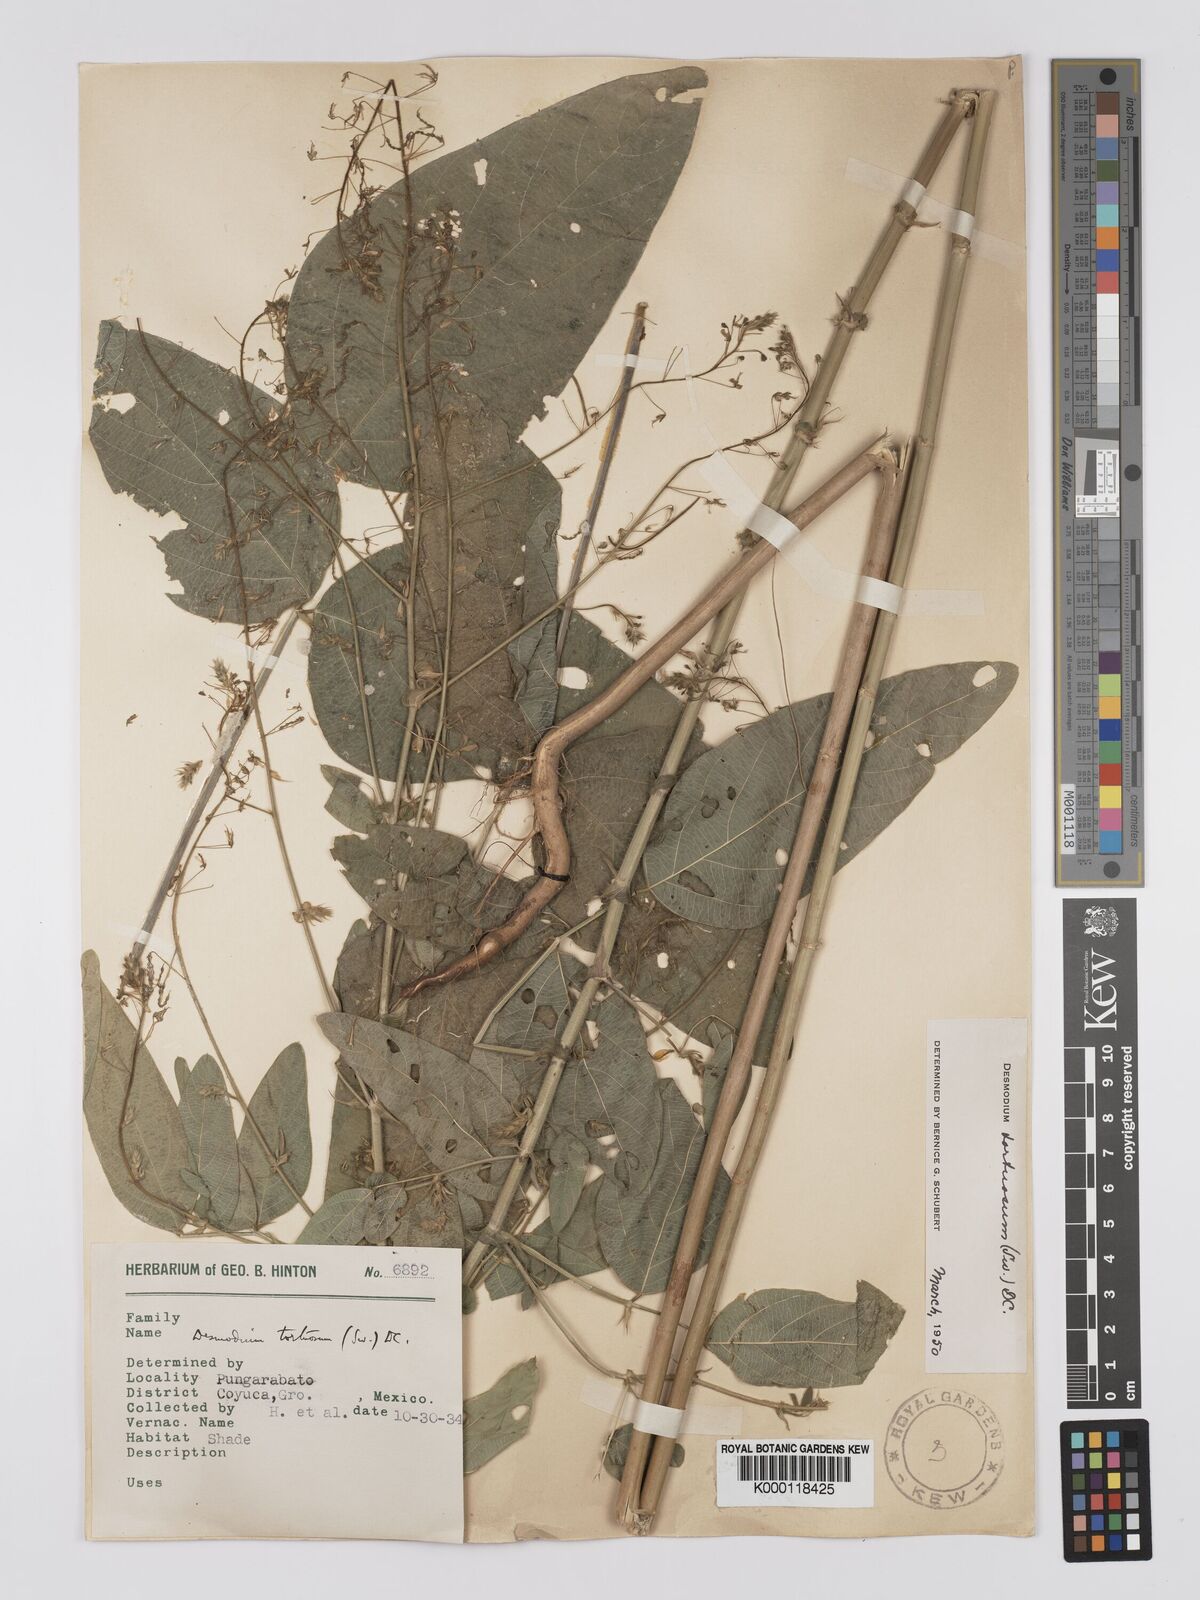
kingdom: Plantae
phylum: Tracheophyta
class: Magnoliopsida
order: Fabales
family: Fabaceae
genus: Desmodium
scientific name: Desmodium tortuosum
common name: Dixie ticktrefoil
